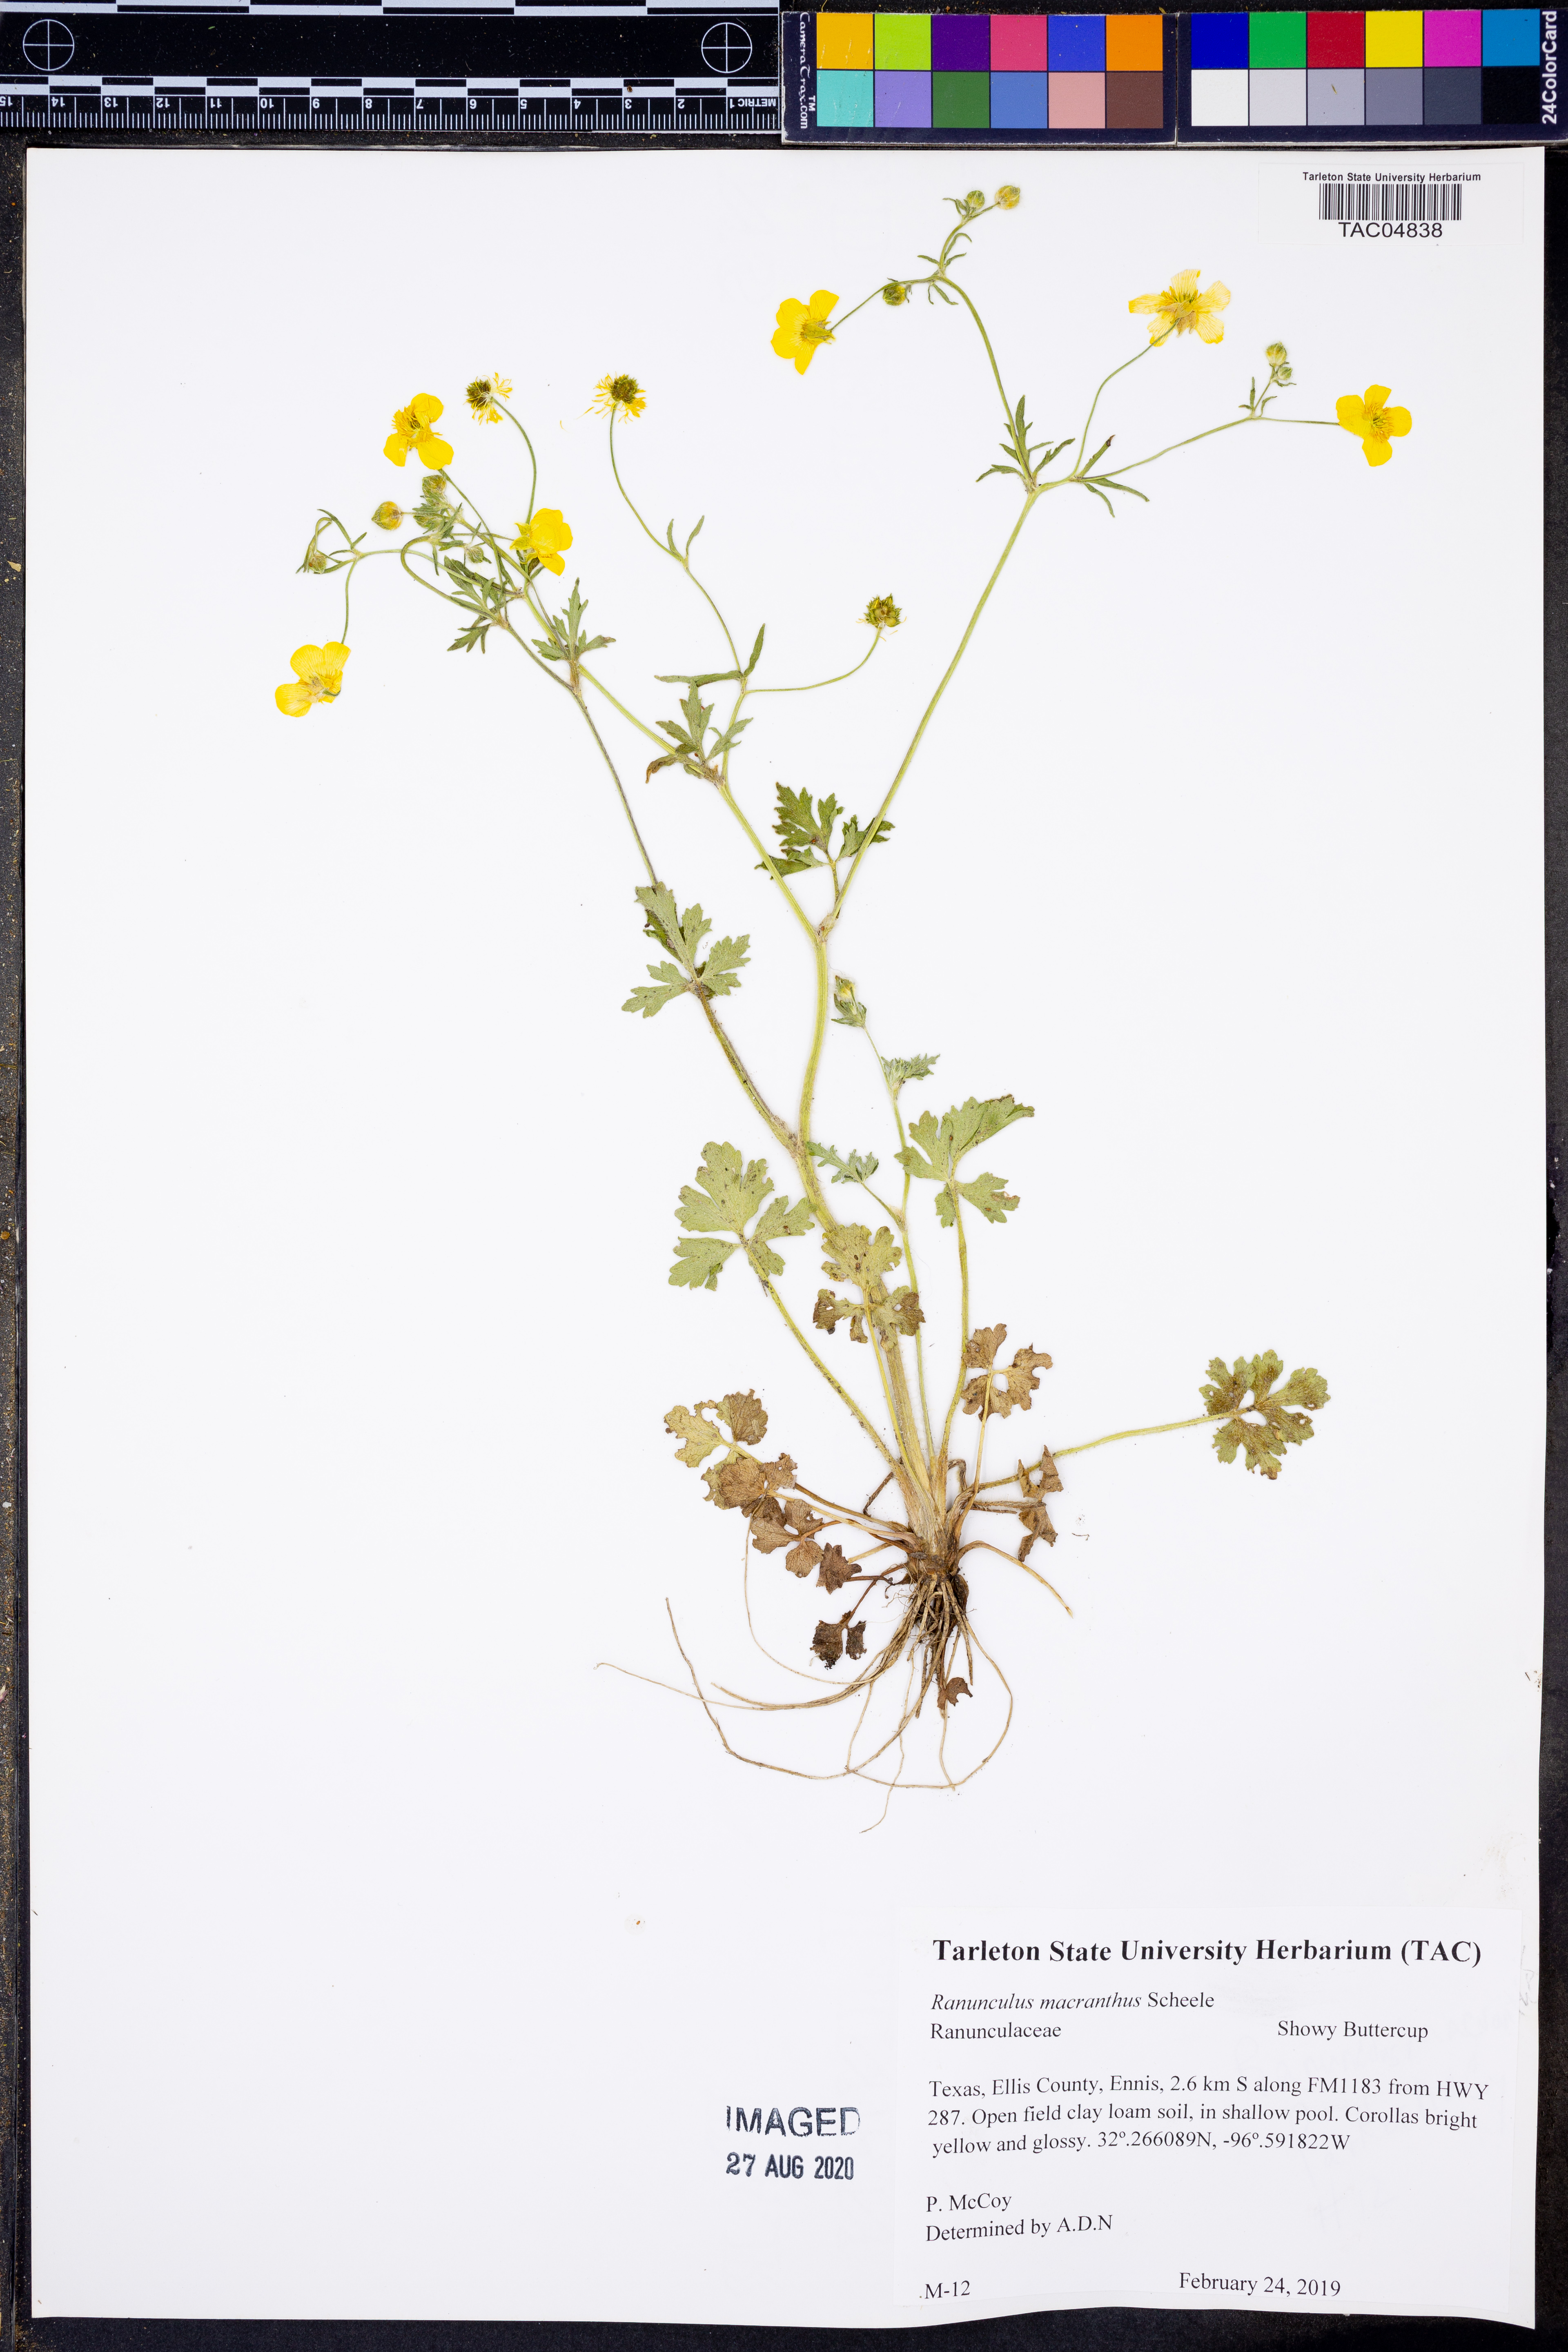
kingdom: Plantae
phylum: Tracheophyta
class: Magnoliopsida
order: Ranunculales
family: Ranunculaceae
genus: Ranunculus
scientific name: Ranunculus macranthus
